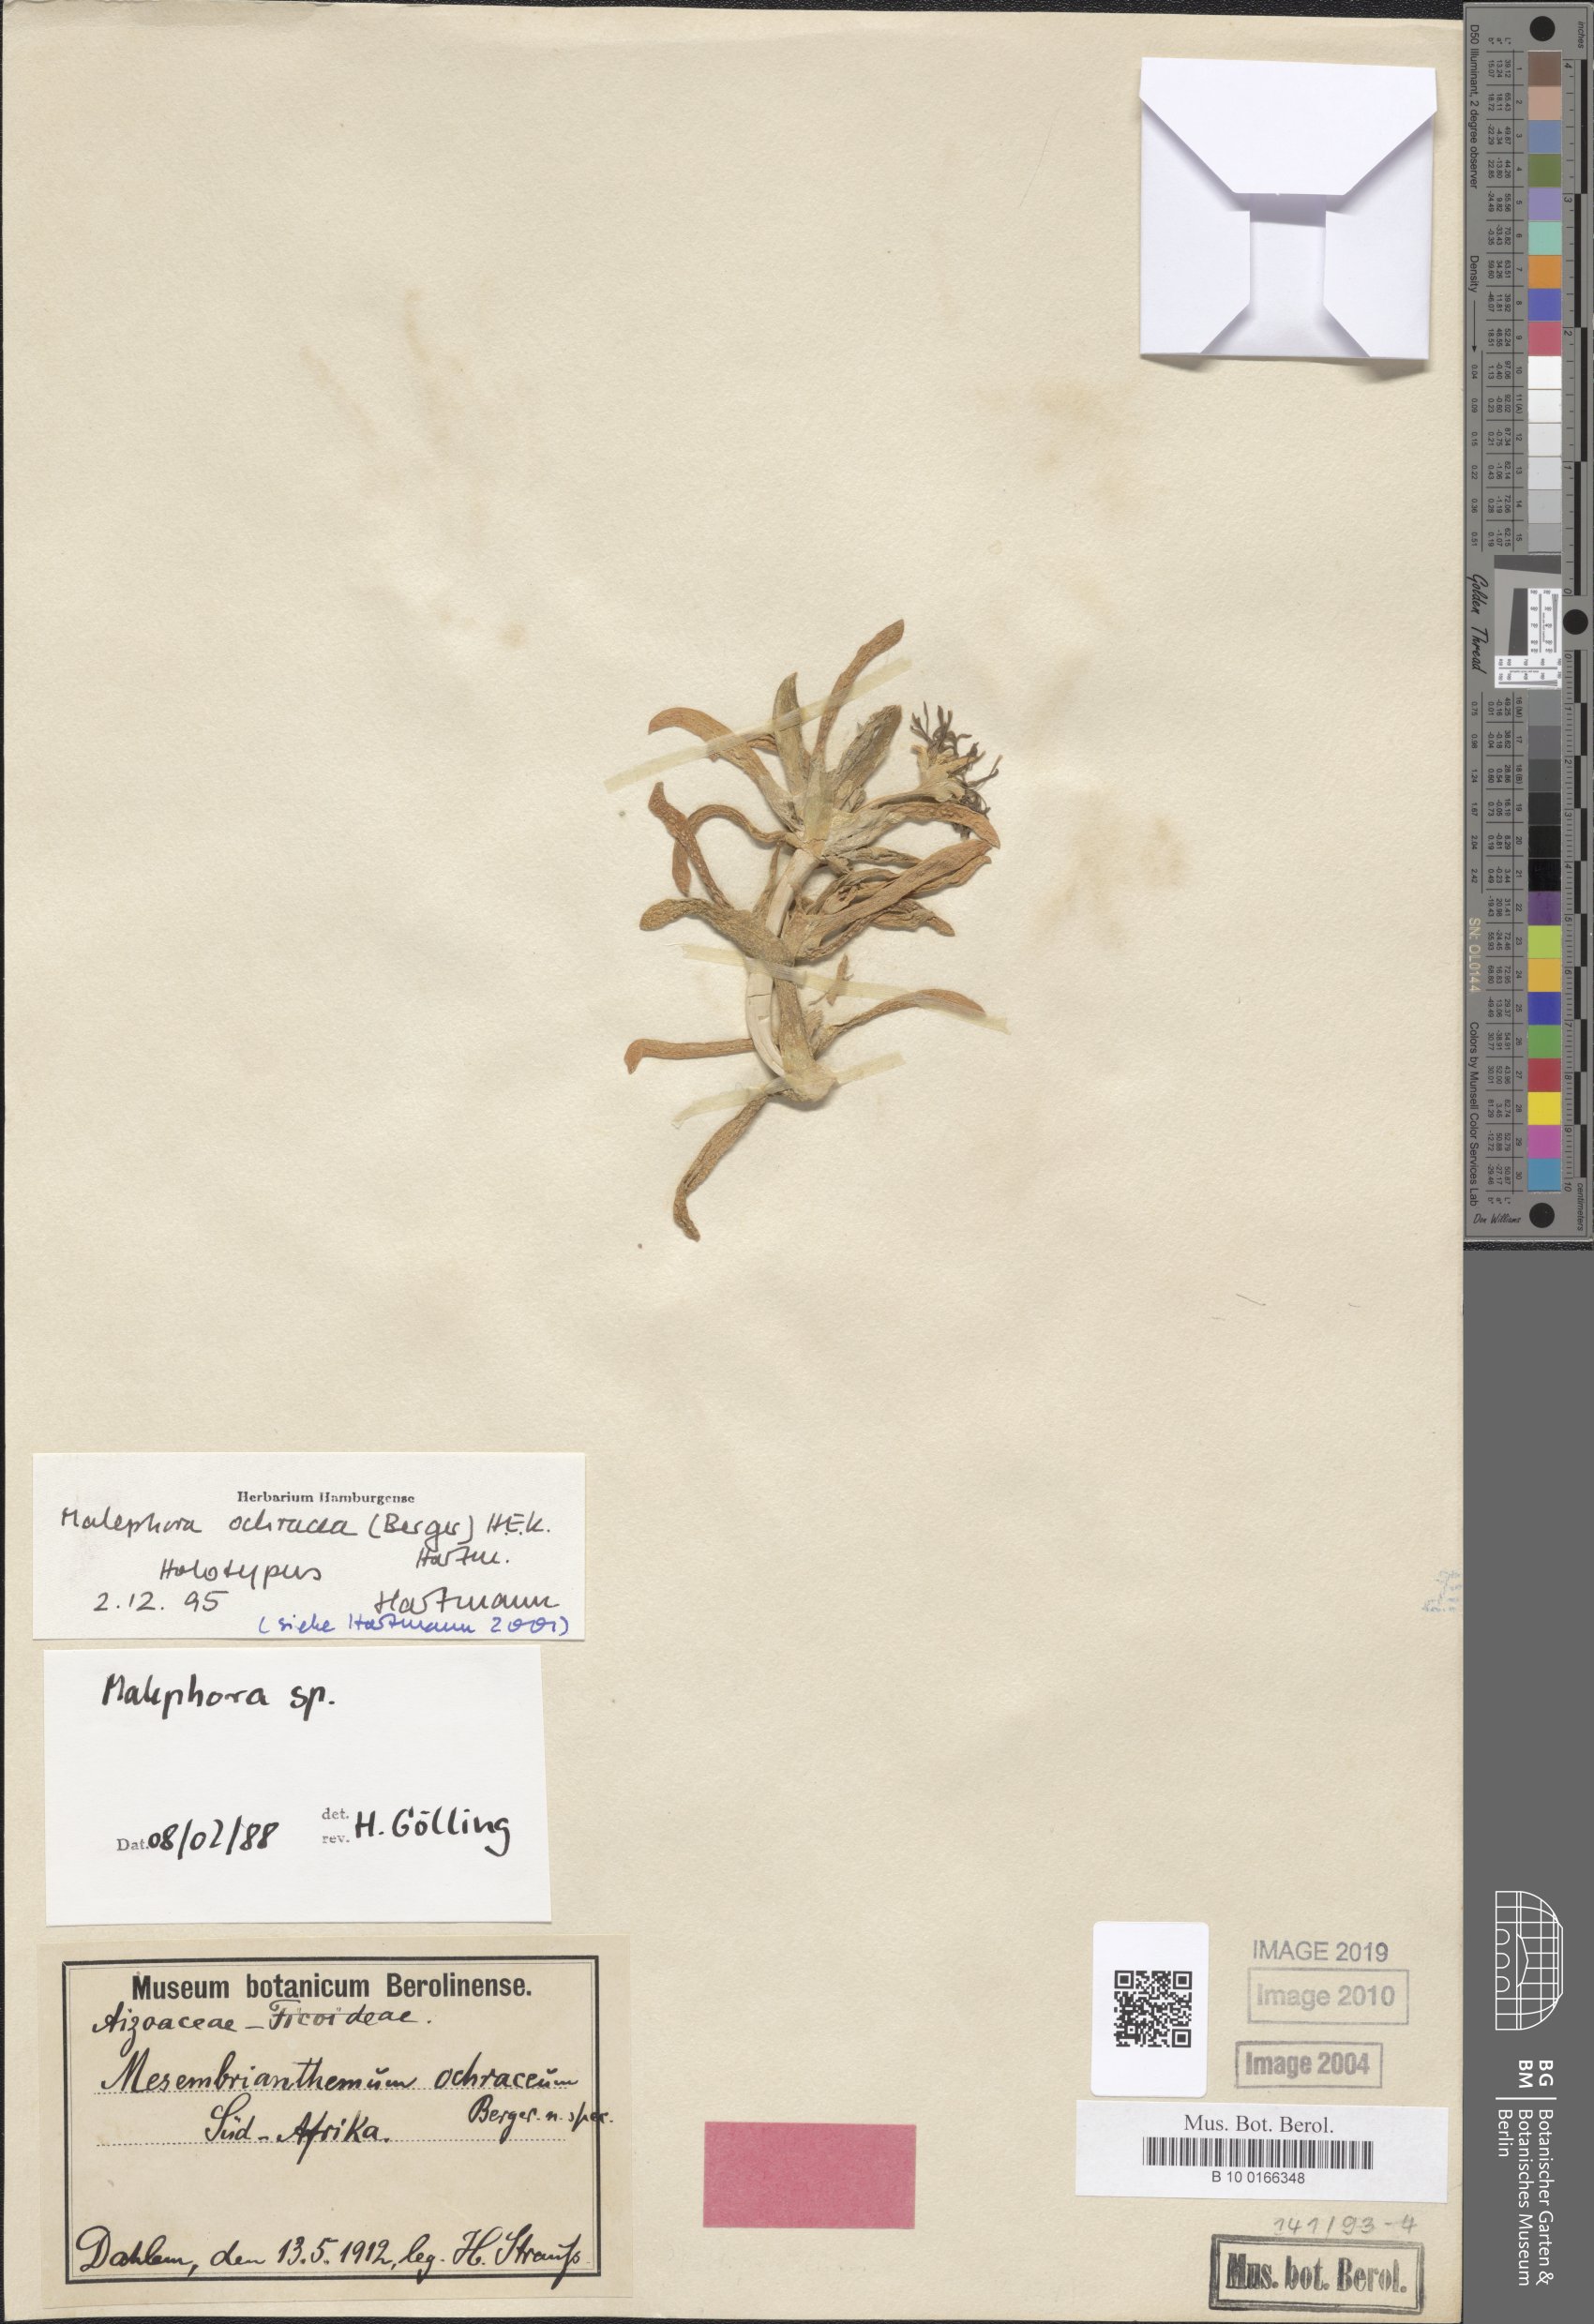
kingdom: Plantae
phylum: Tracheophyta
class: Magnoliopsida
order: Caryophyllales
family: Aizoaceae
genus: Malephora
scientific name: Malephora ochracea
